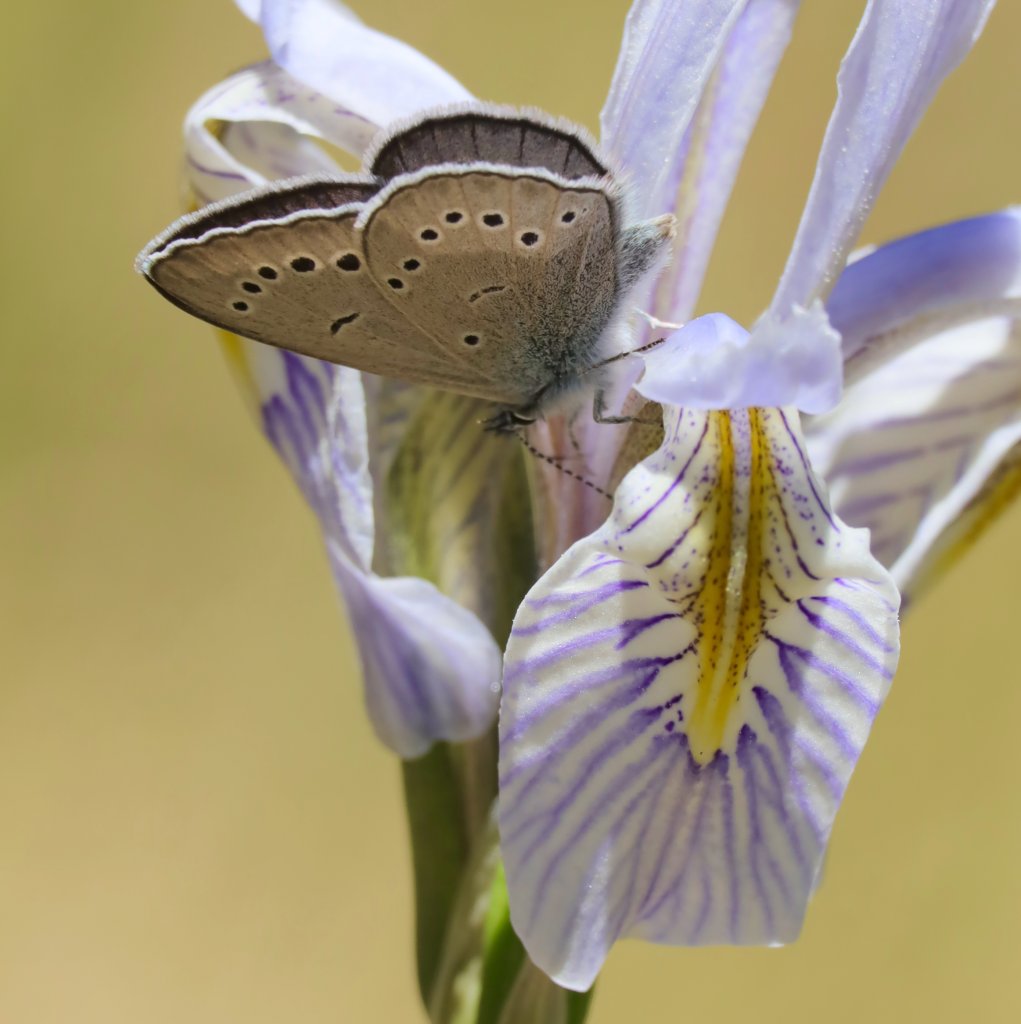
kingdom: Animalia
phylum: Arthropoda
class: Insecta
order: Lepidoptera
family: Lycaenidae
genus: Glaucopsyche
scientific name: Glaucopsyche lygdamus
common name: Silvery Blue
